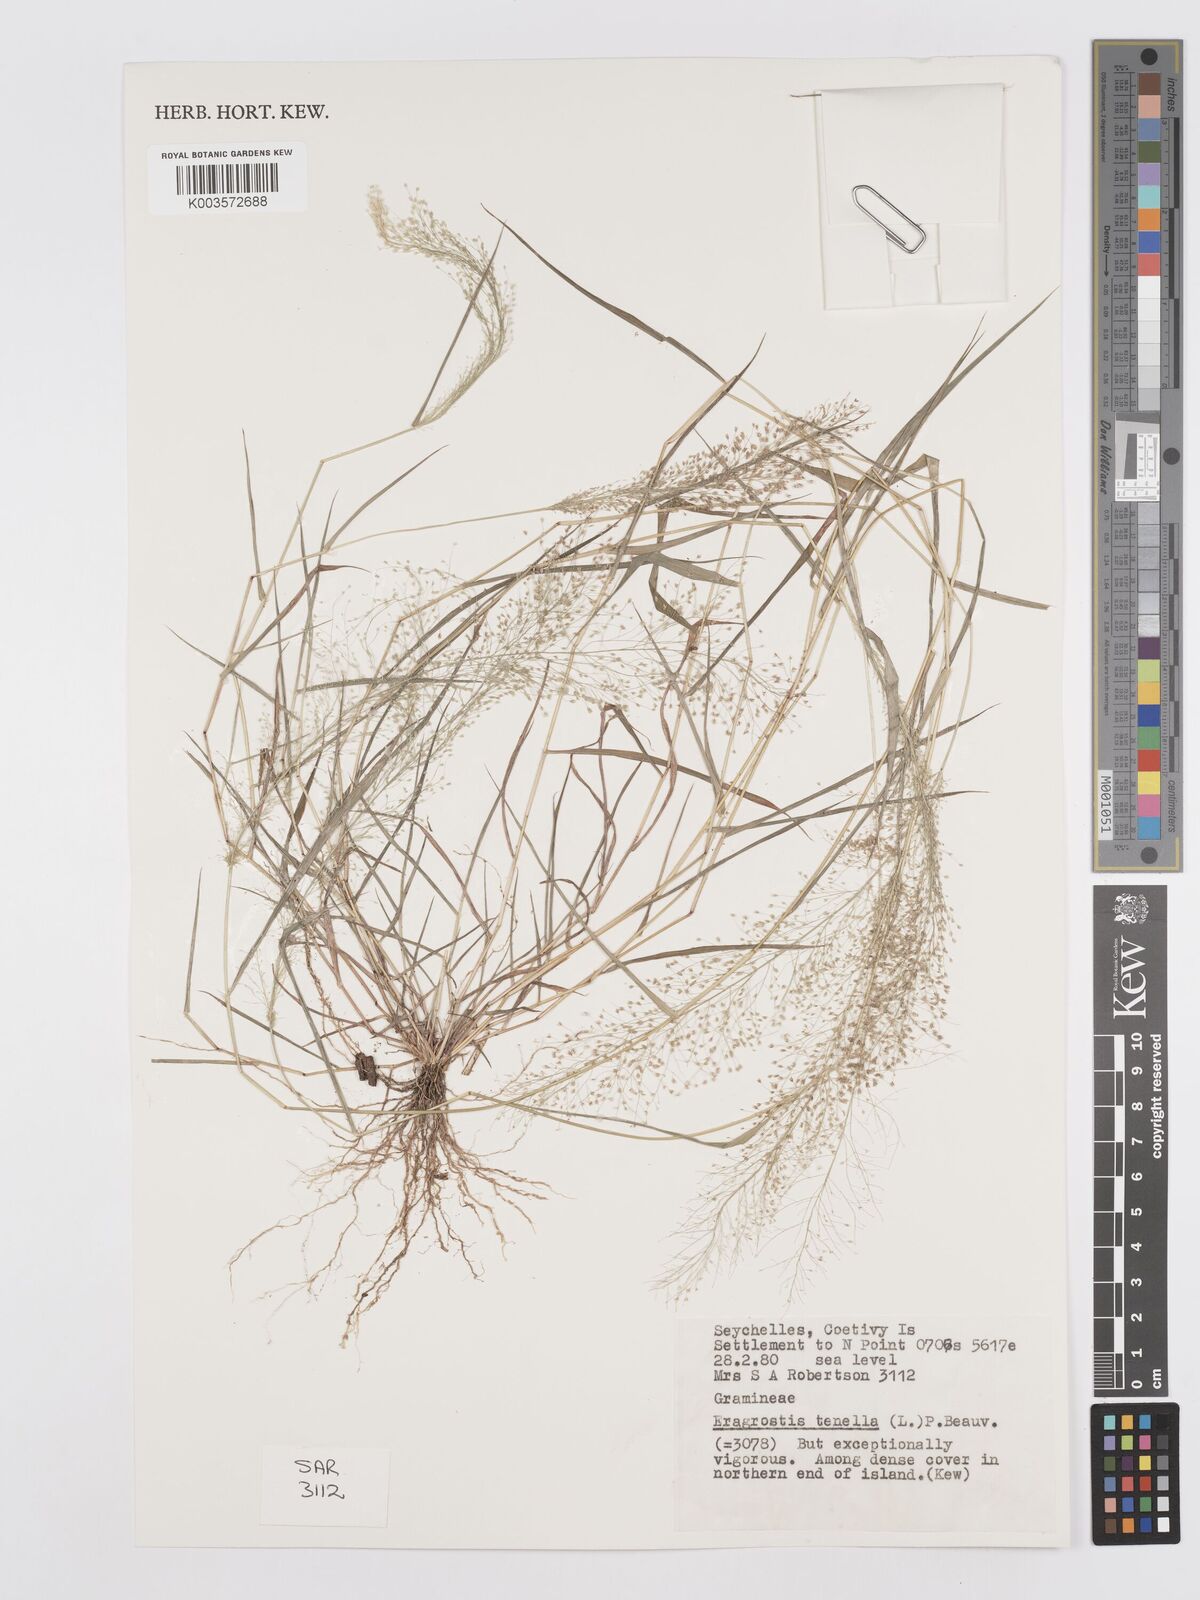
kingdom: Plantae
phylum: Tracheophyta
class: Liliopsida
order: Poales
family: Poaceae
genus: Eragrostis
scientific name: Eragrostis tenella
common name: Japanese lovegrass
